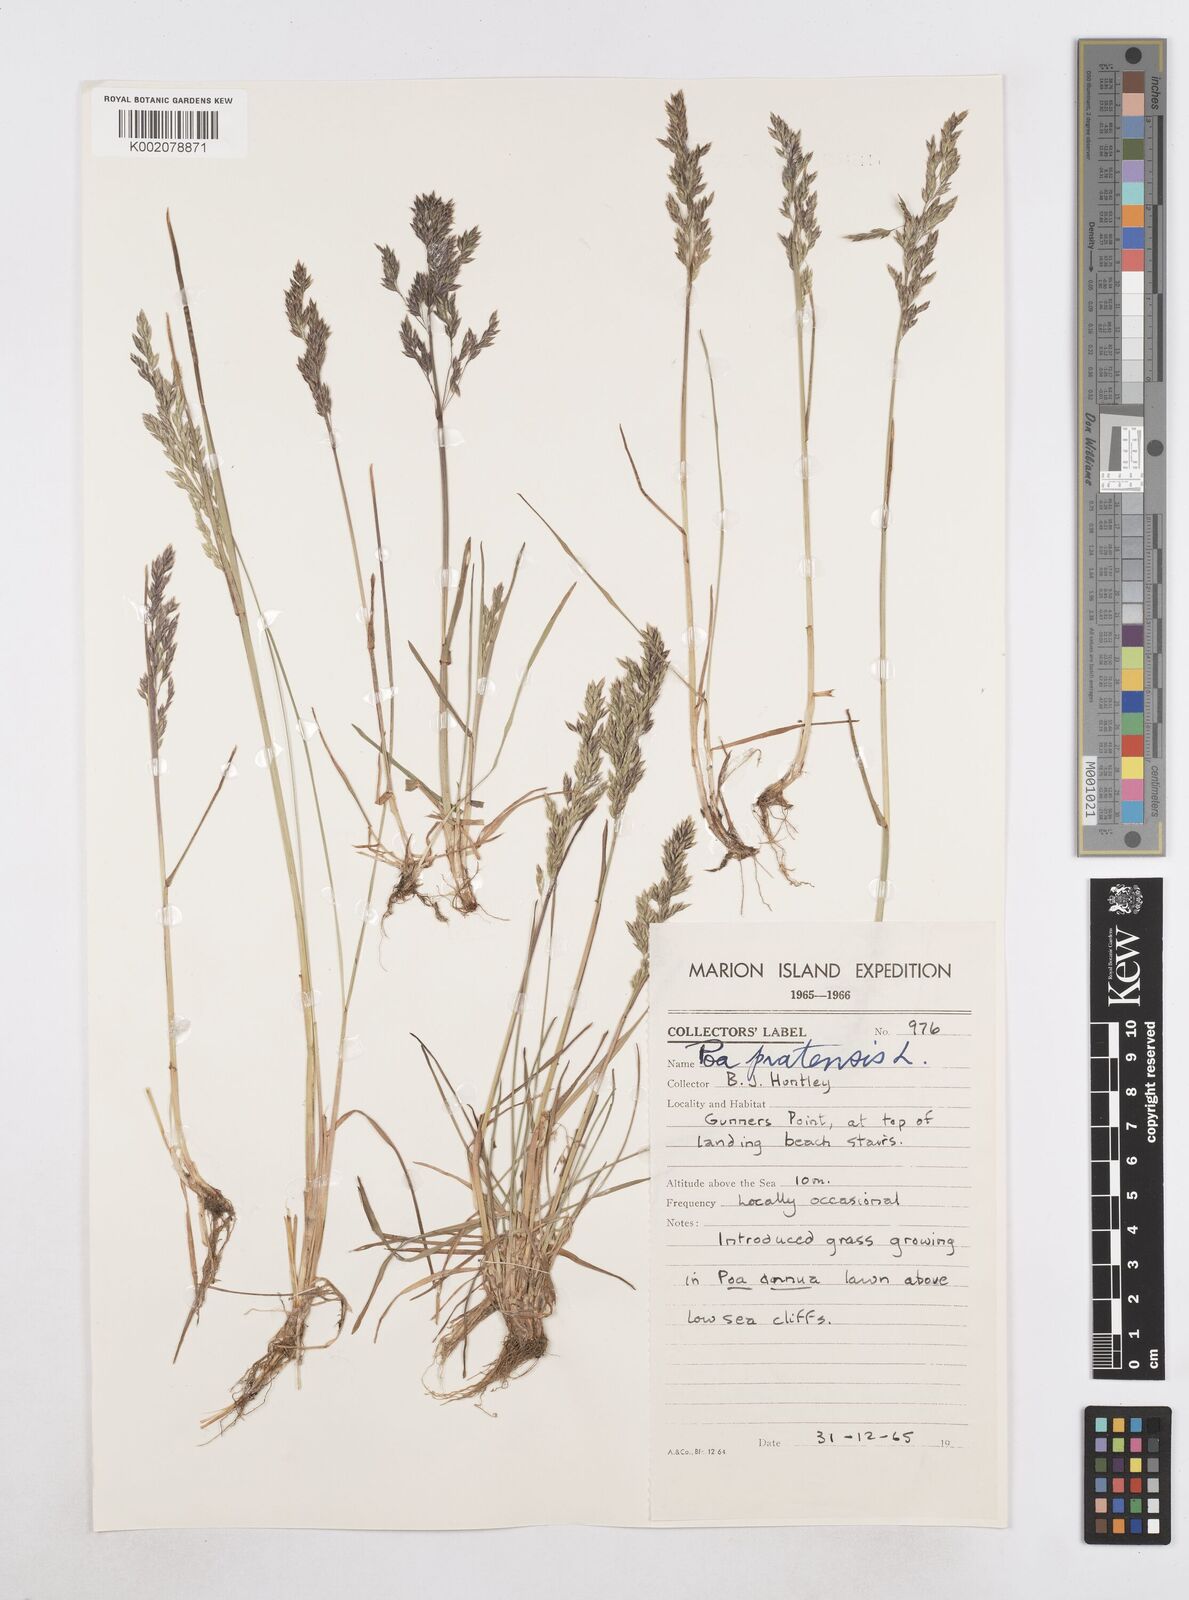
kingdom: Plantae
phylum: Tracheophyta
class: Liliopsida
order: Poales
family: Poaceae
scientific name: Poaceae
